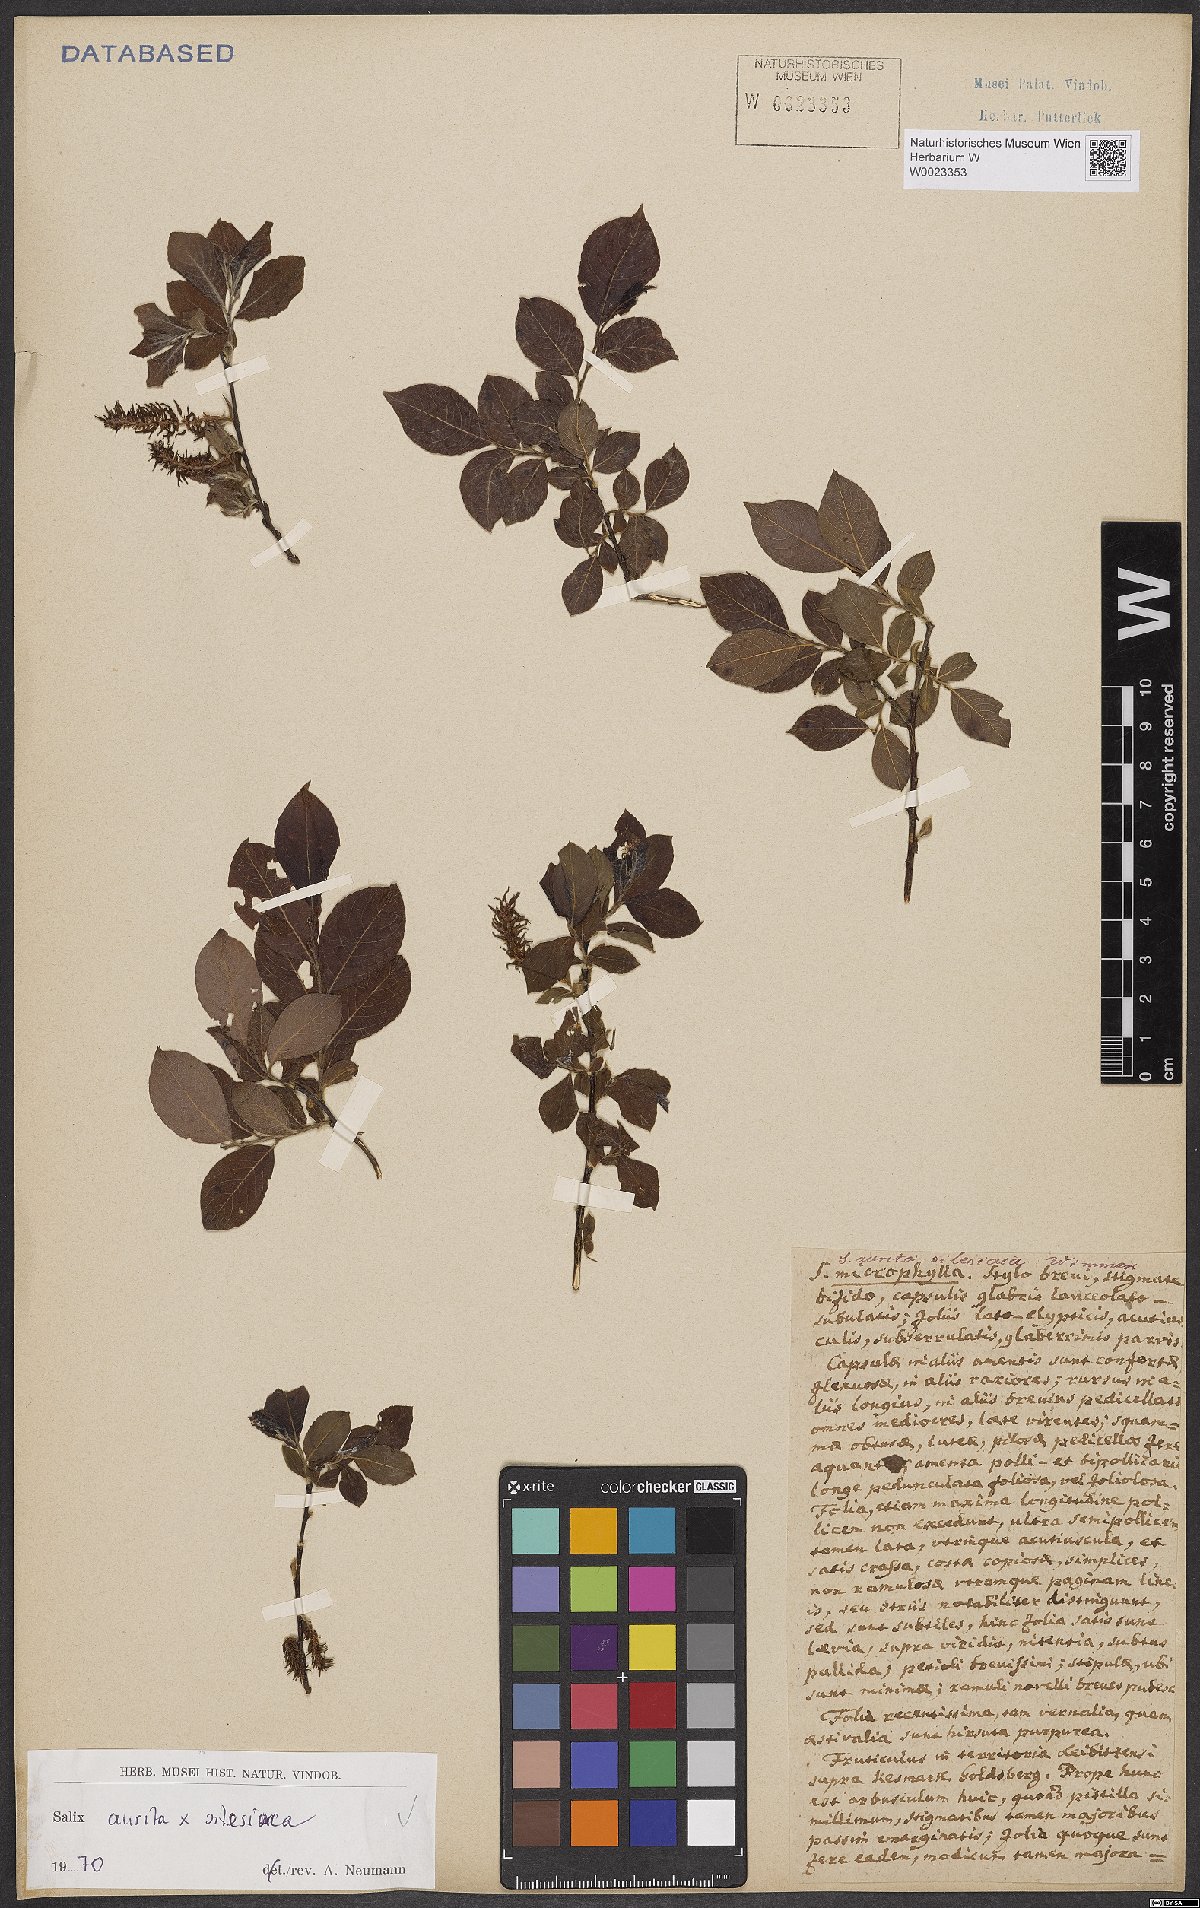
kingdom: Plantae
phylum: Tracheophyta
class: Magnoliopsida
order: Malpighiales
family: Salicaceae
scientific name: Salicaceae
